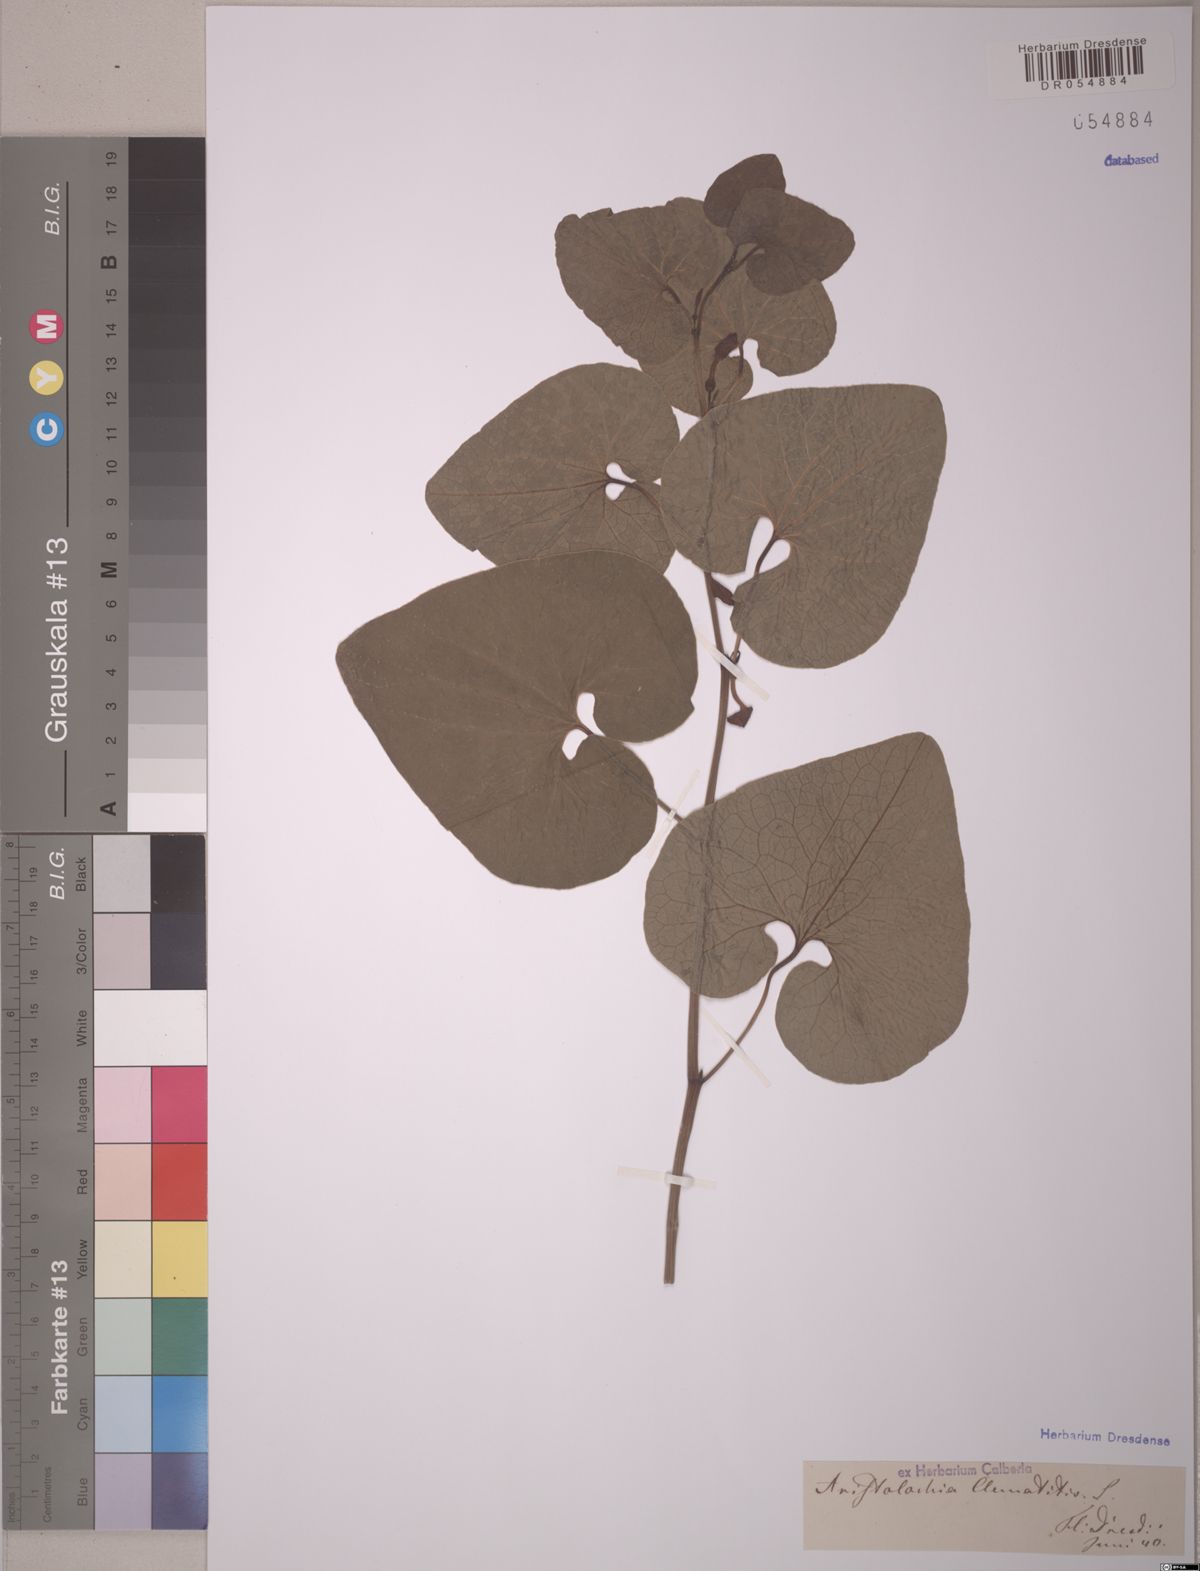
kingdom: Plantae
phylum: Tracheophyta
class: Magnoliopsida
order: Piperales
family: Aristolochiaceae
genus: Aristolochia
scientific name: Aristolochia clematitis
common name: Birthwort
